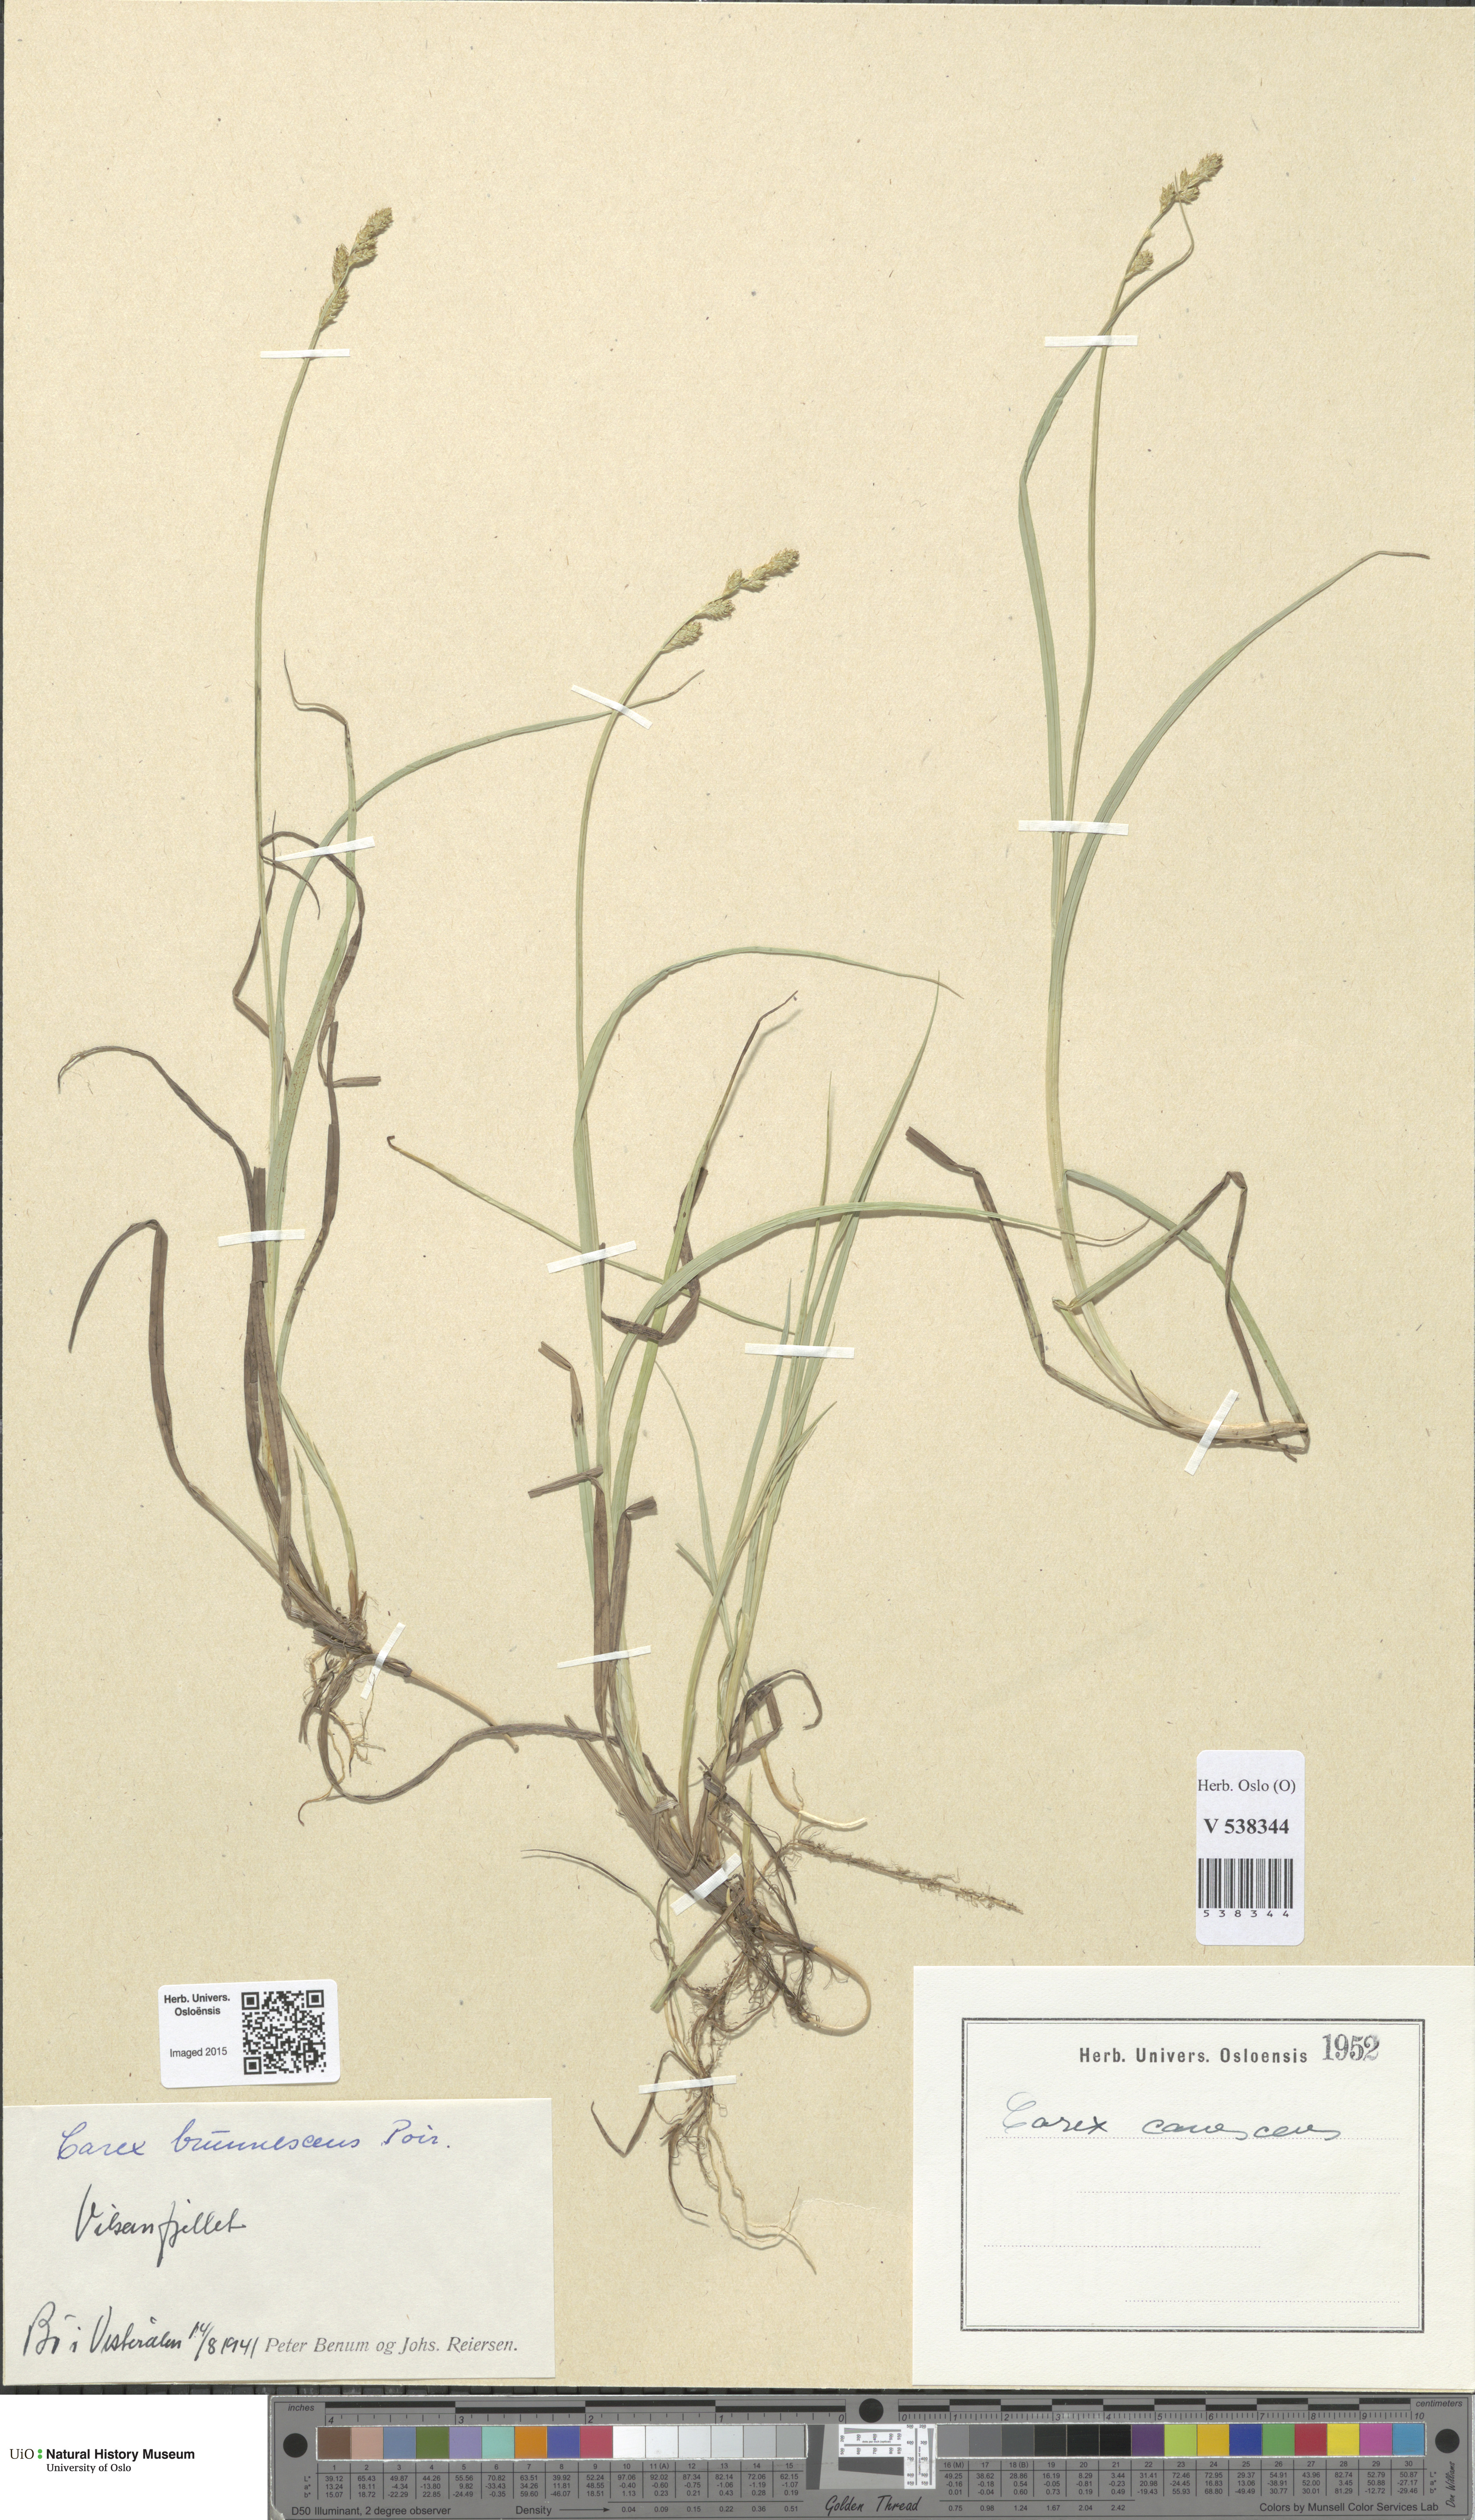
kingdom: Plantae
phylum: Tracheophyta
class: Liliopsida
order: Poales
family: Cyperaceae
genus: Carex
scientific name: Carex canescens
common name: White sedge
